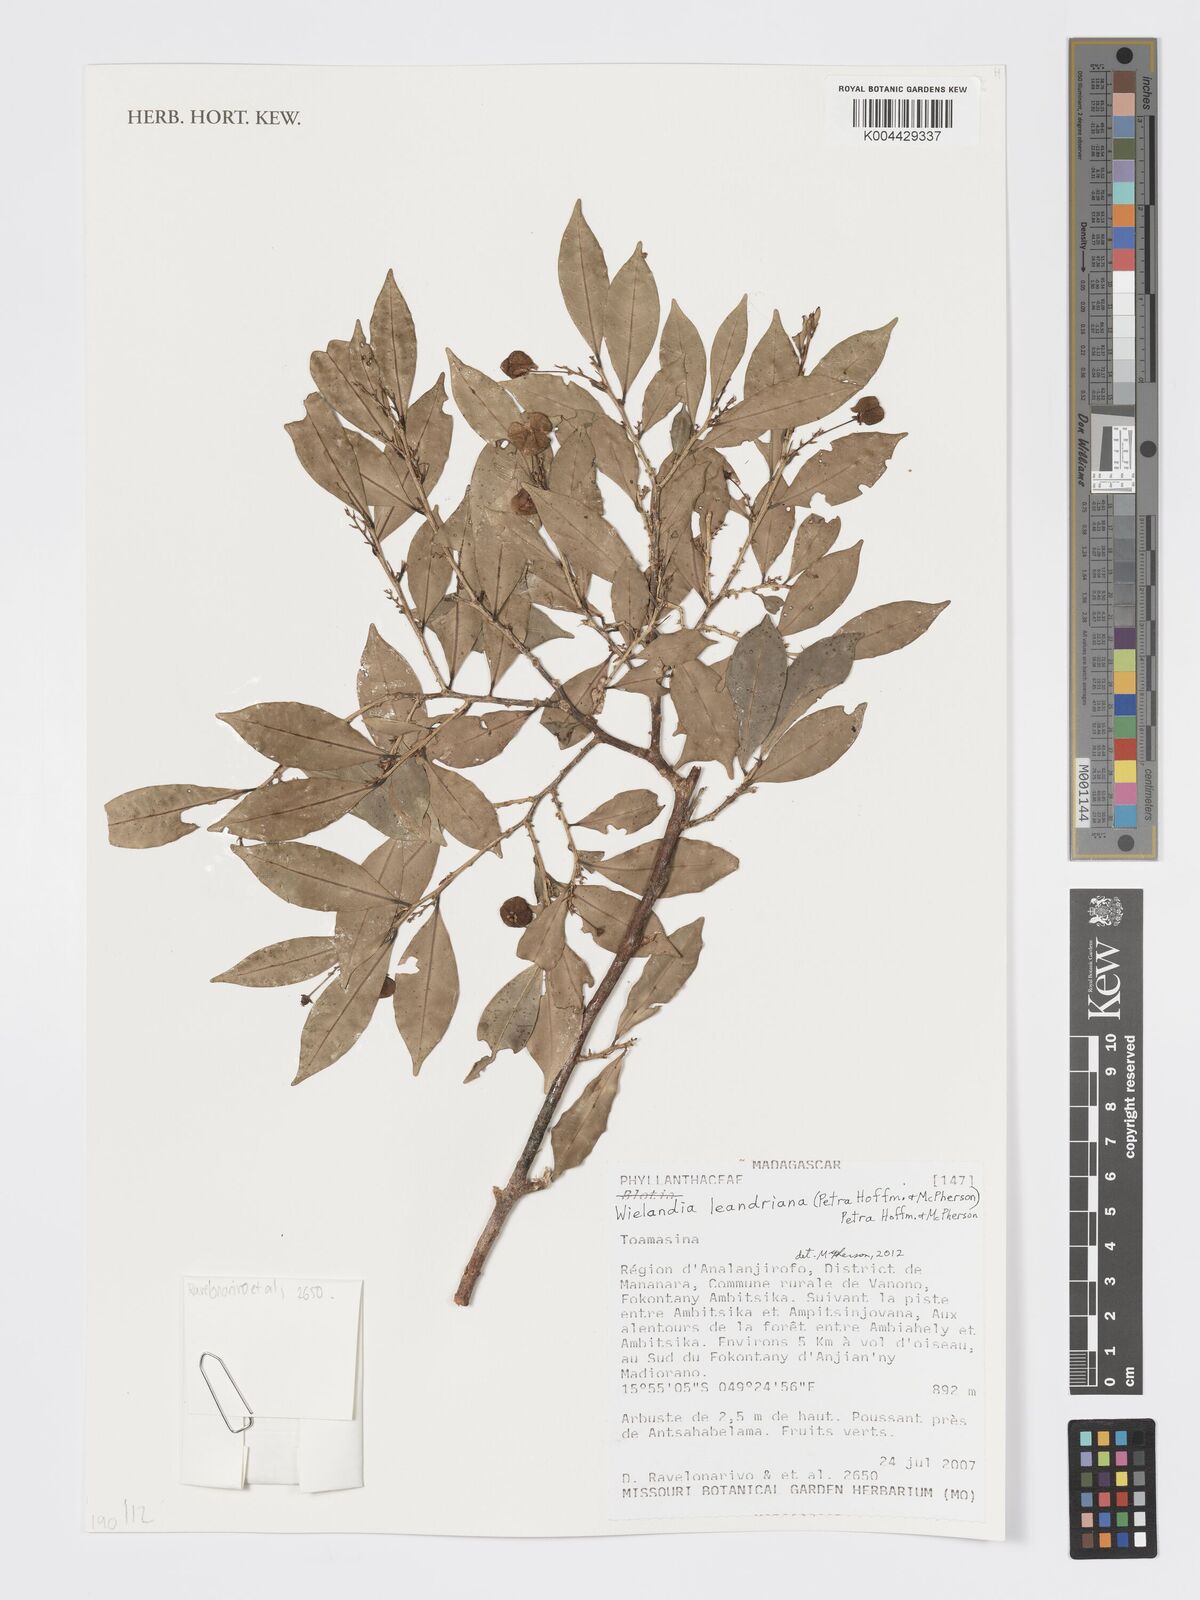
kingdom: Plantae
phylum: Tracheophyta
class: Magnoliopsida
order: Malpighiales
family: Phyllanthaceae
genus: Wielandia
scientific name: Wielandia leandriana
